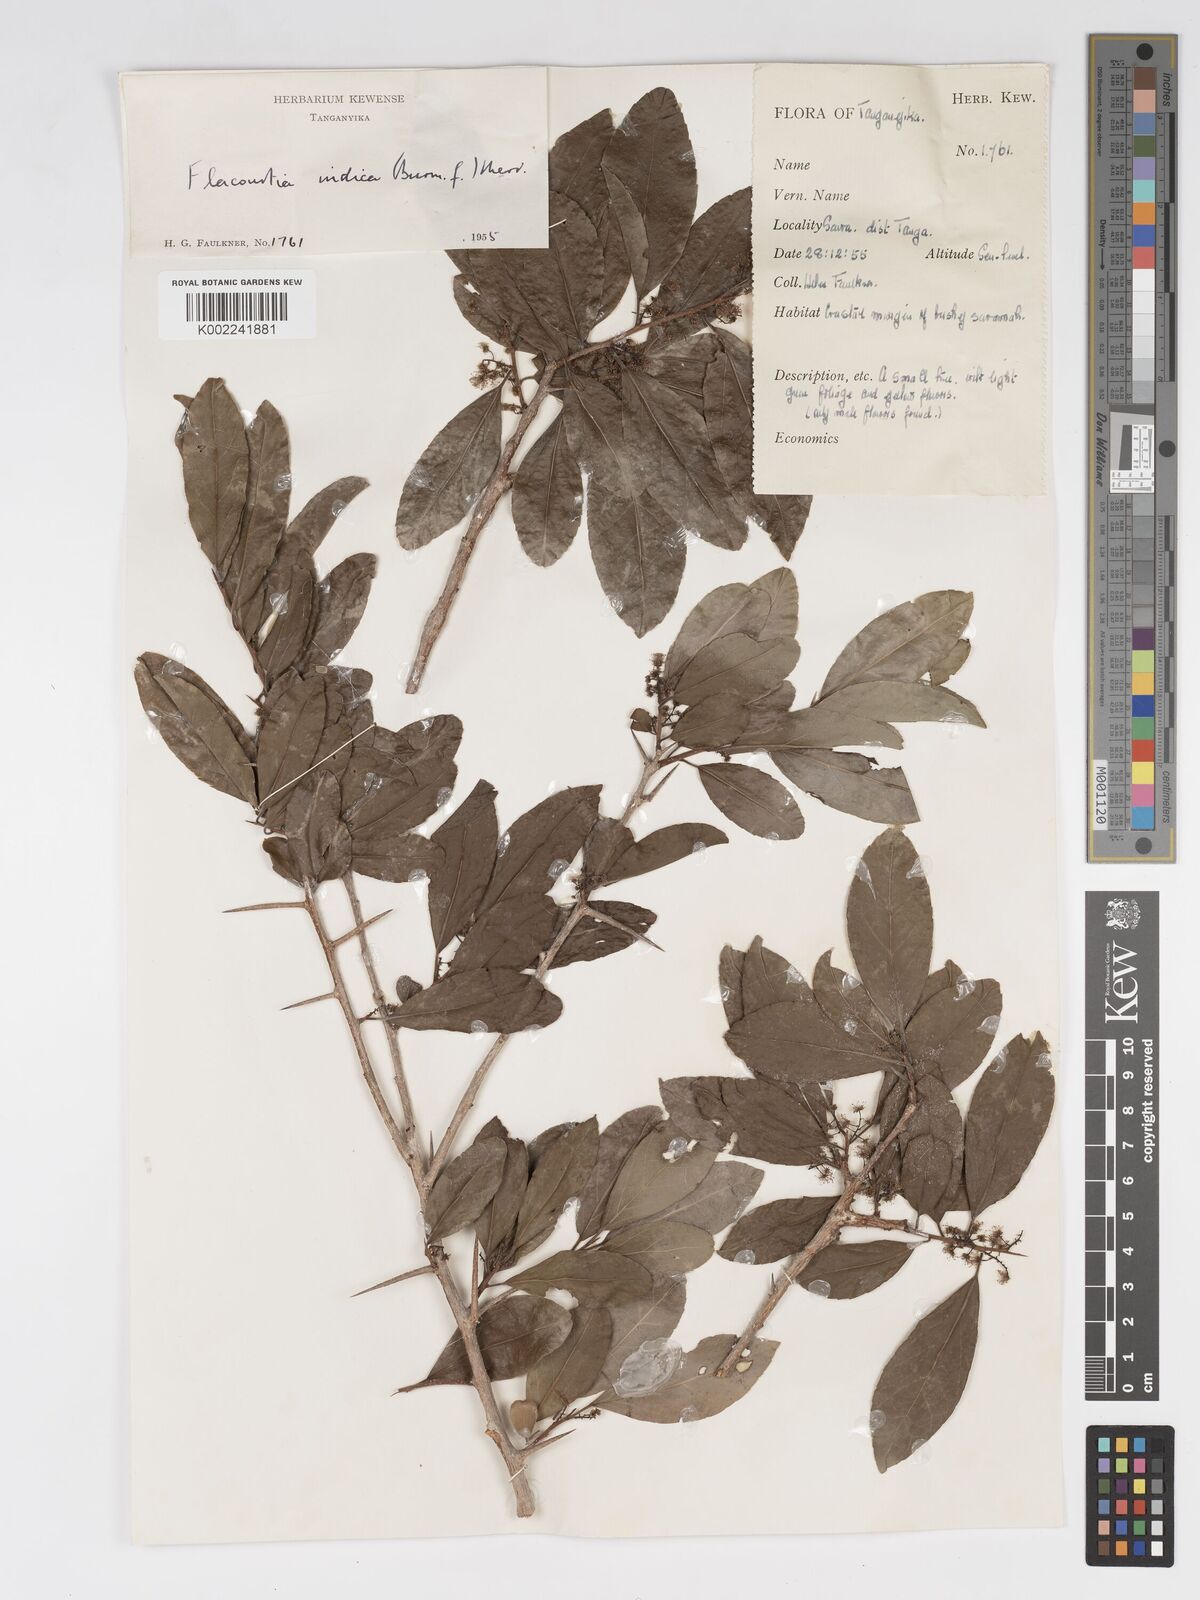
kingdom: Plantae
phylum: Tracheophyta
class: Magnoliopsida
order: Malpighiales
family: Salicaceae
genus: Flacourtia
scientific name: Flacourtia indica
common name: Governor's plum
